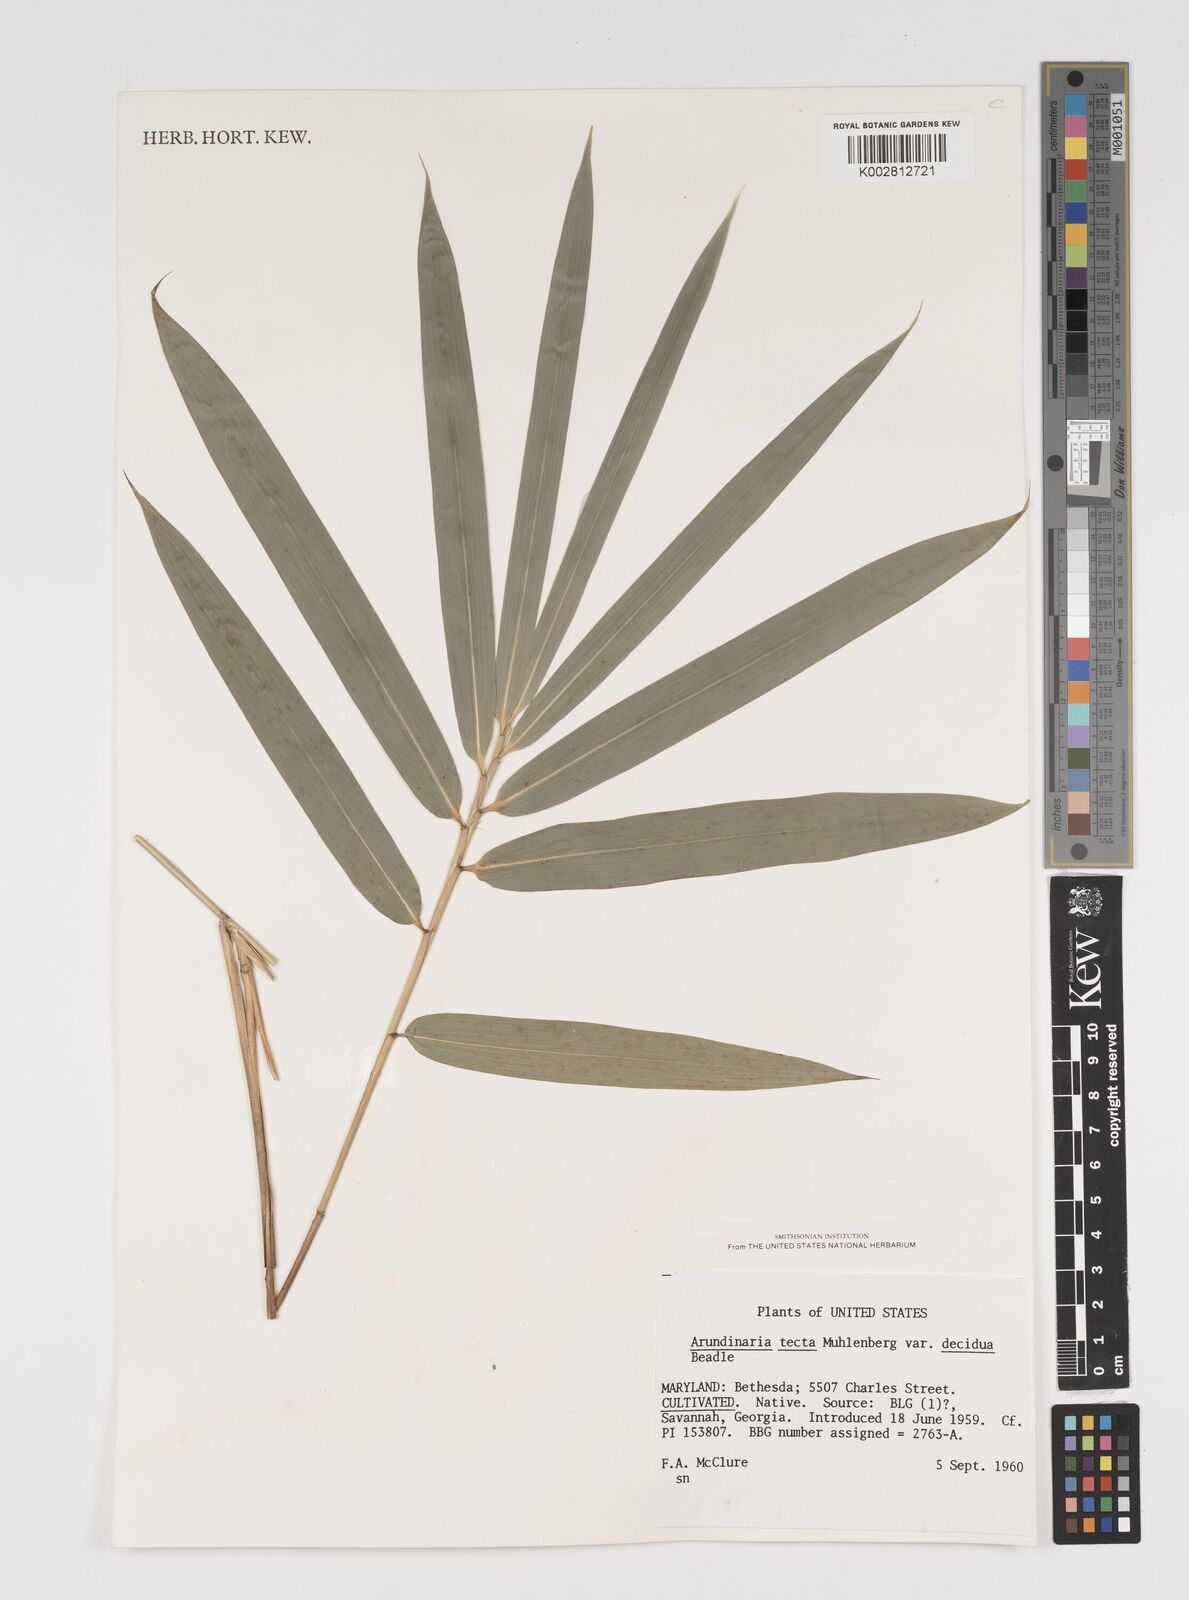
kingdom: Plantae
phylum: Tracheophyta
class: Liliopsida
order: Poales
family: Poaceae
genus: Arundinaria
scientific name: Arundinaria tecta
